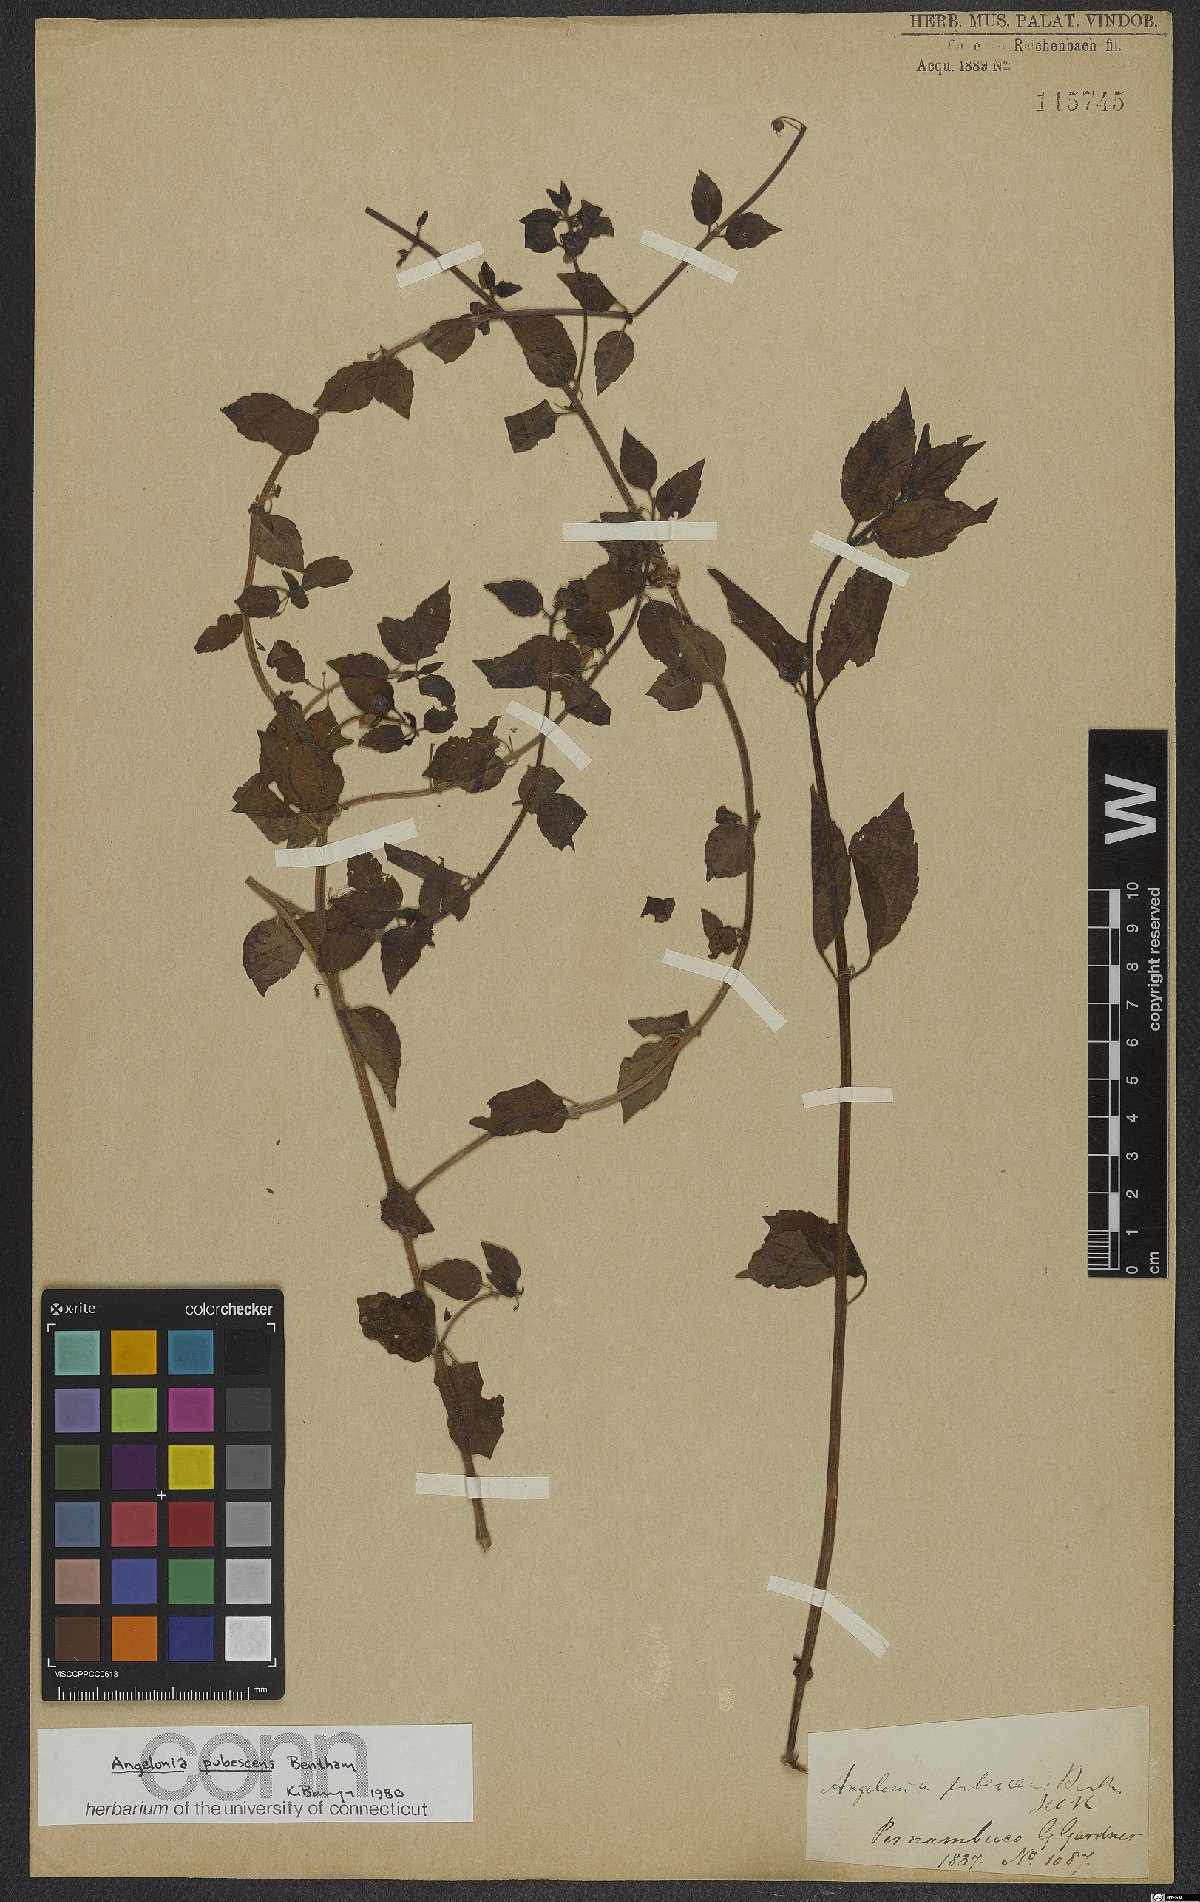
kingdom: Plantae
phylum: Tracheophyta
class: Magnoliopsida
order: Lamiales
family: Plantaginaceae
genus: Angelonia
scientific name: Angelonia pubescens
